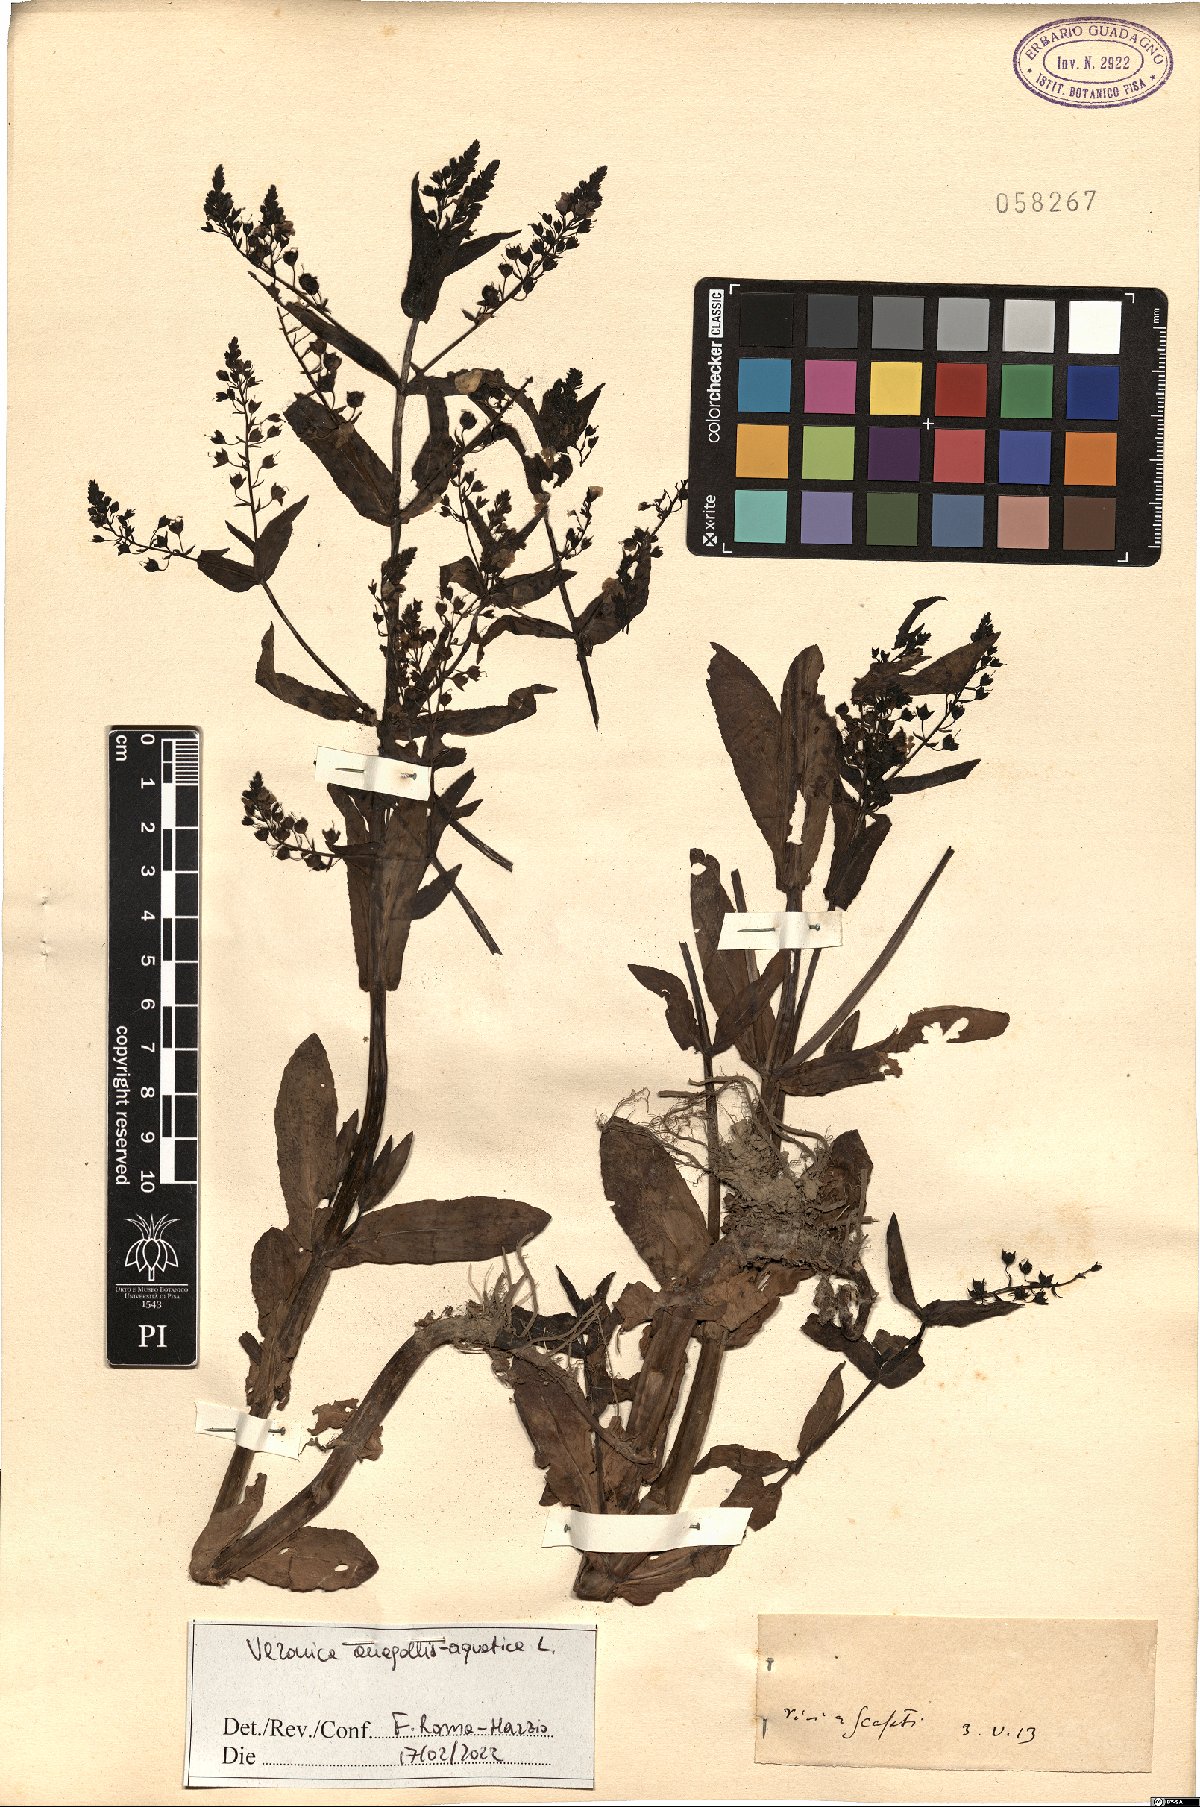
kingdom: Plantae
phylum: Tracheophyta
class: Magnoliopsida
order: Lamiales
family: Plantaginaceae
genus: Veronica
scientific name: Veronica anagallis-aquatica
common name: Water speedwell
